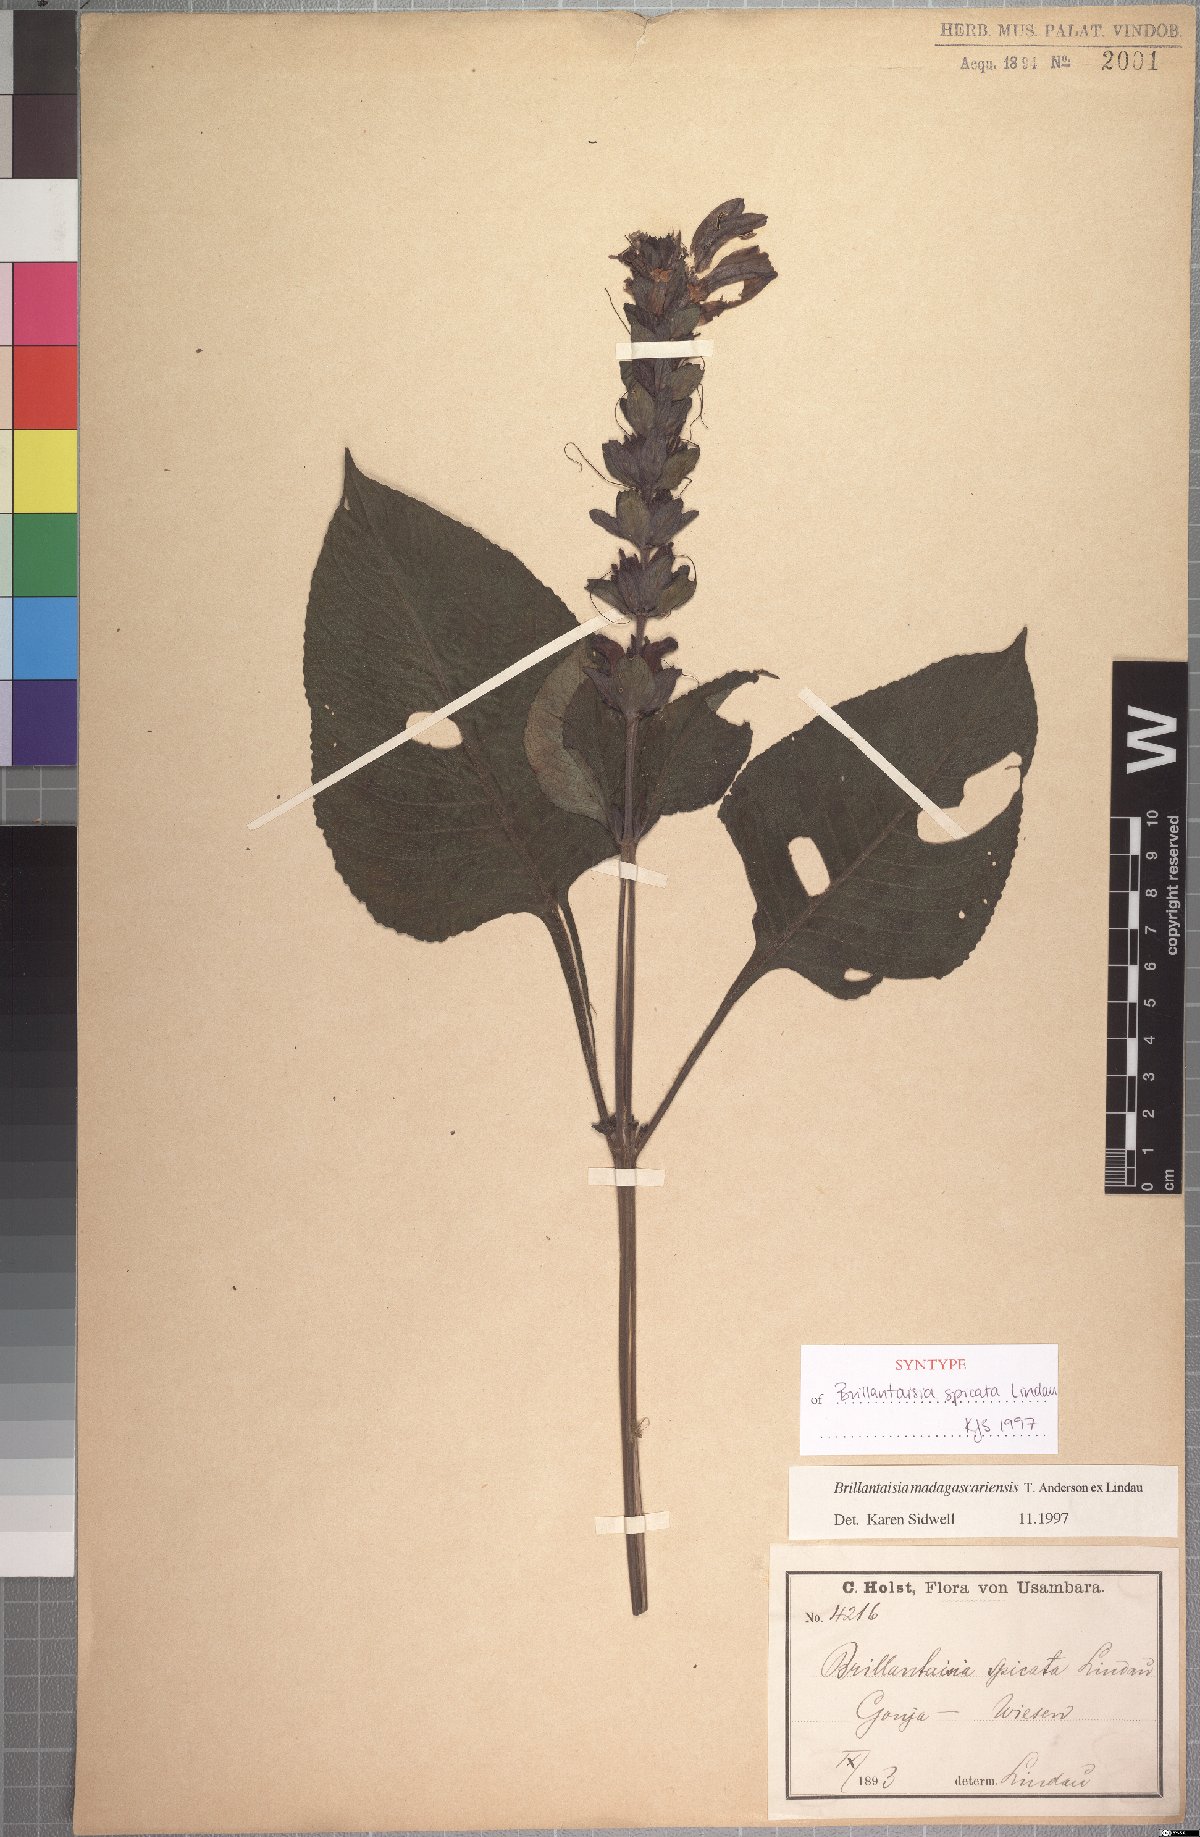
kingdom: Plantae
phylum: Tracheophyta
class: Magnoliopsida
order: Lamiales
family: Acanthaceae
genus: Brillantaisia
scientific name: Brillantaisia madagascariensis
